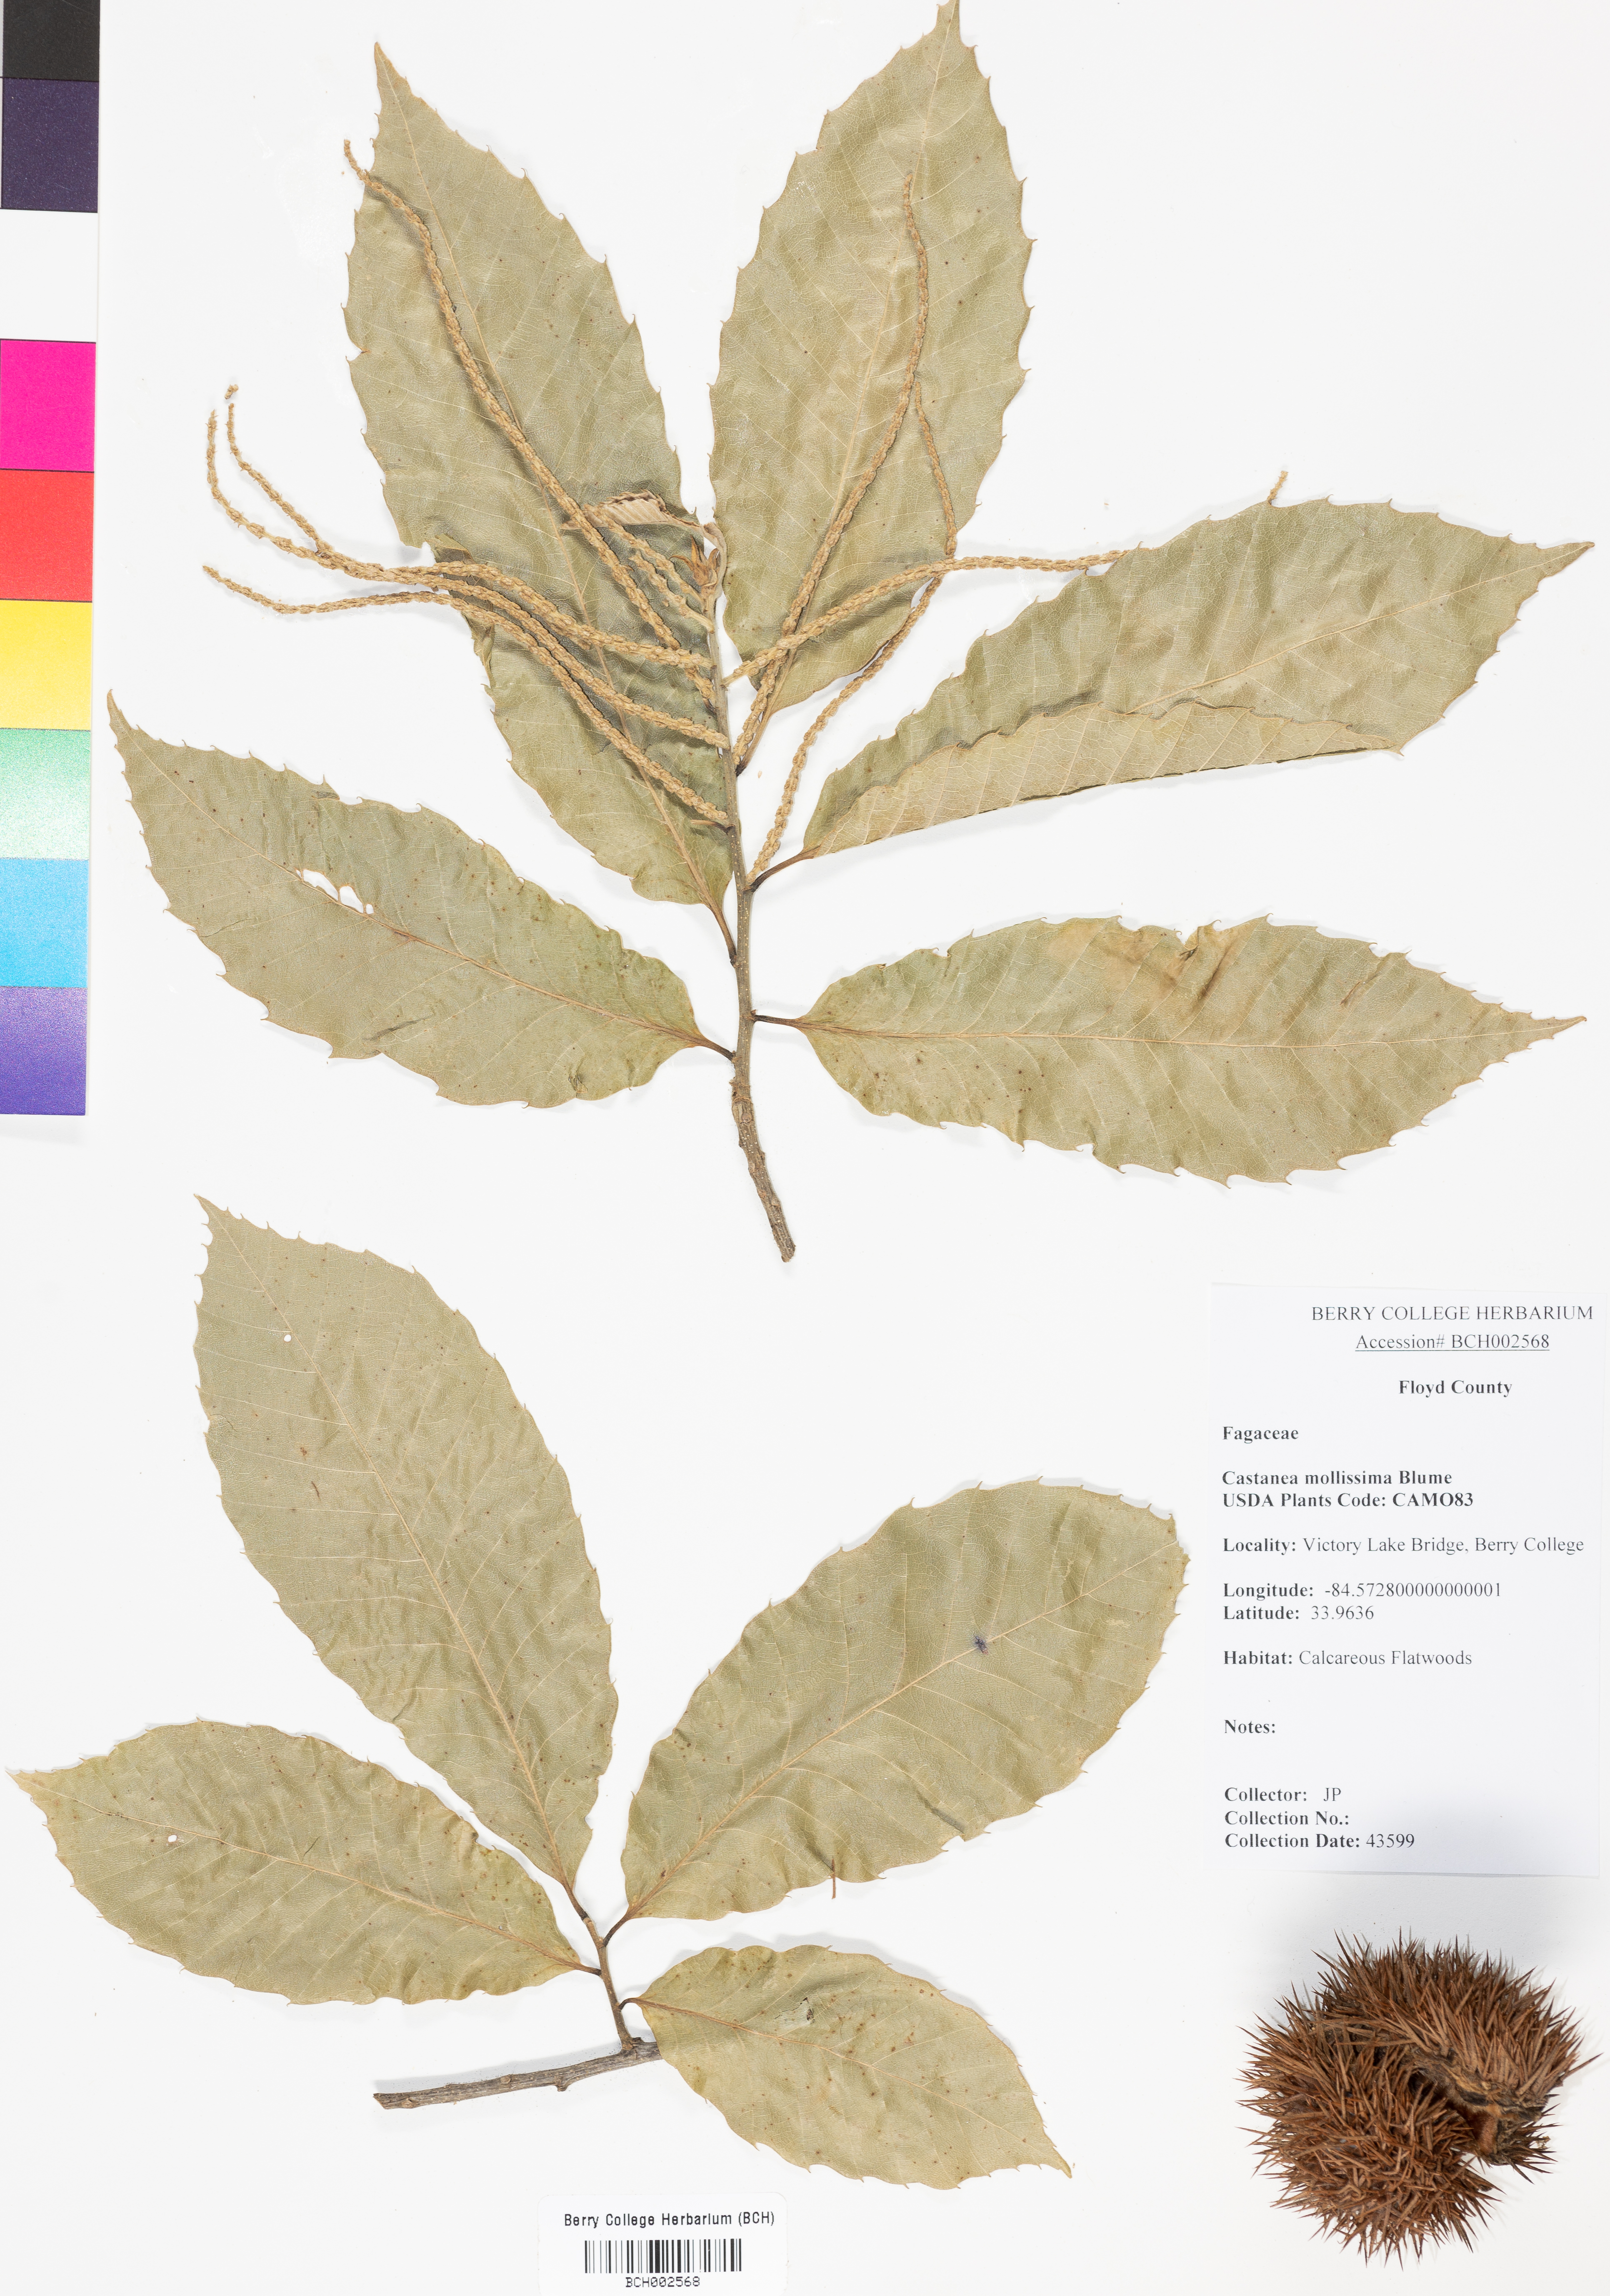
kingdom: Plantae
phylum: Tracheophyta
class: Magnoliopsida
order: Fagales
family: Fagaceae
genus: Castanea
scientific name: Castanea mollissima
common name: Chinese chestnut
